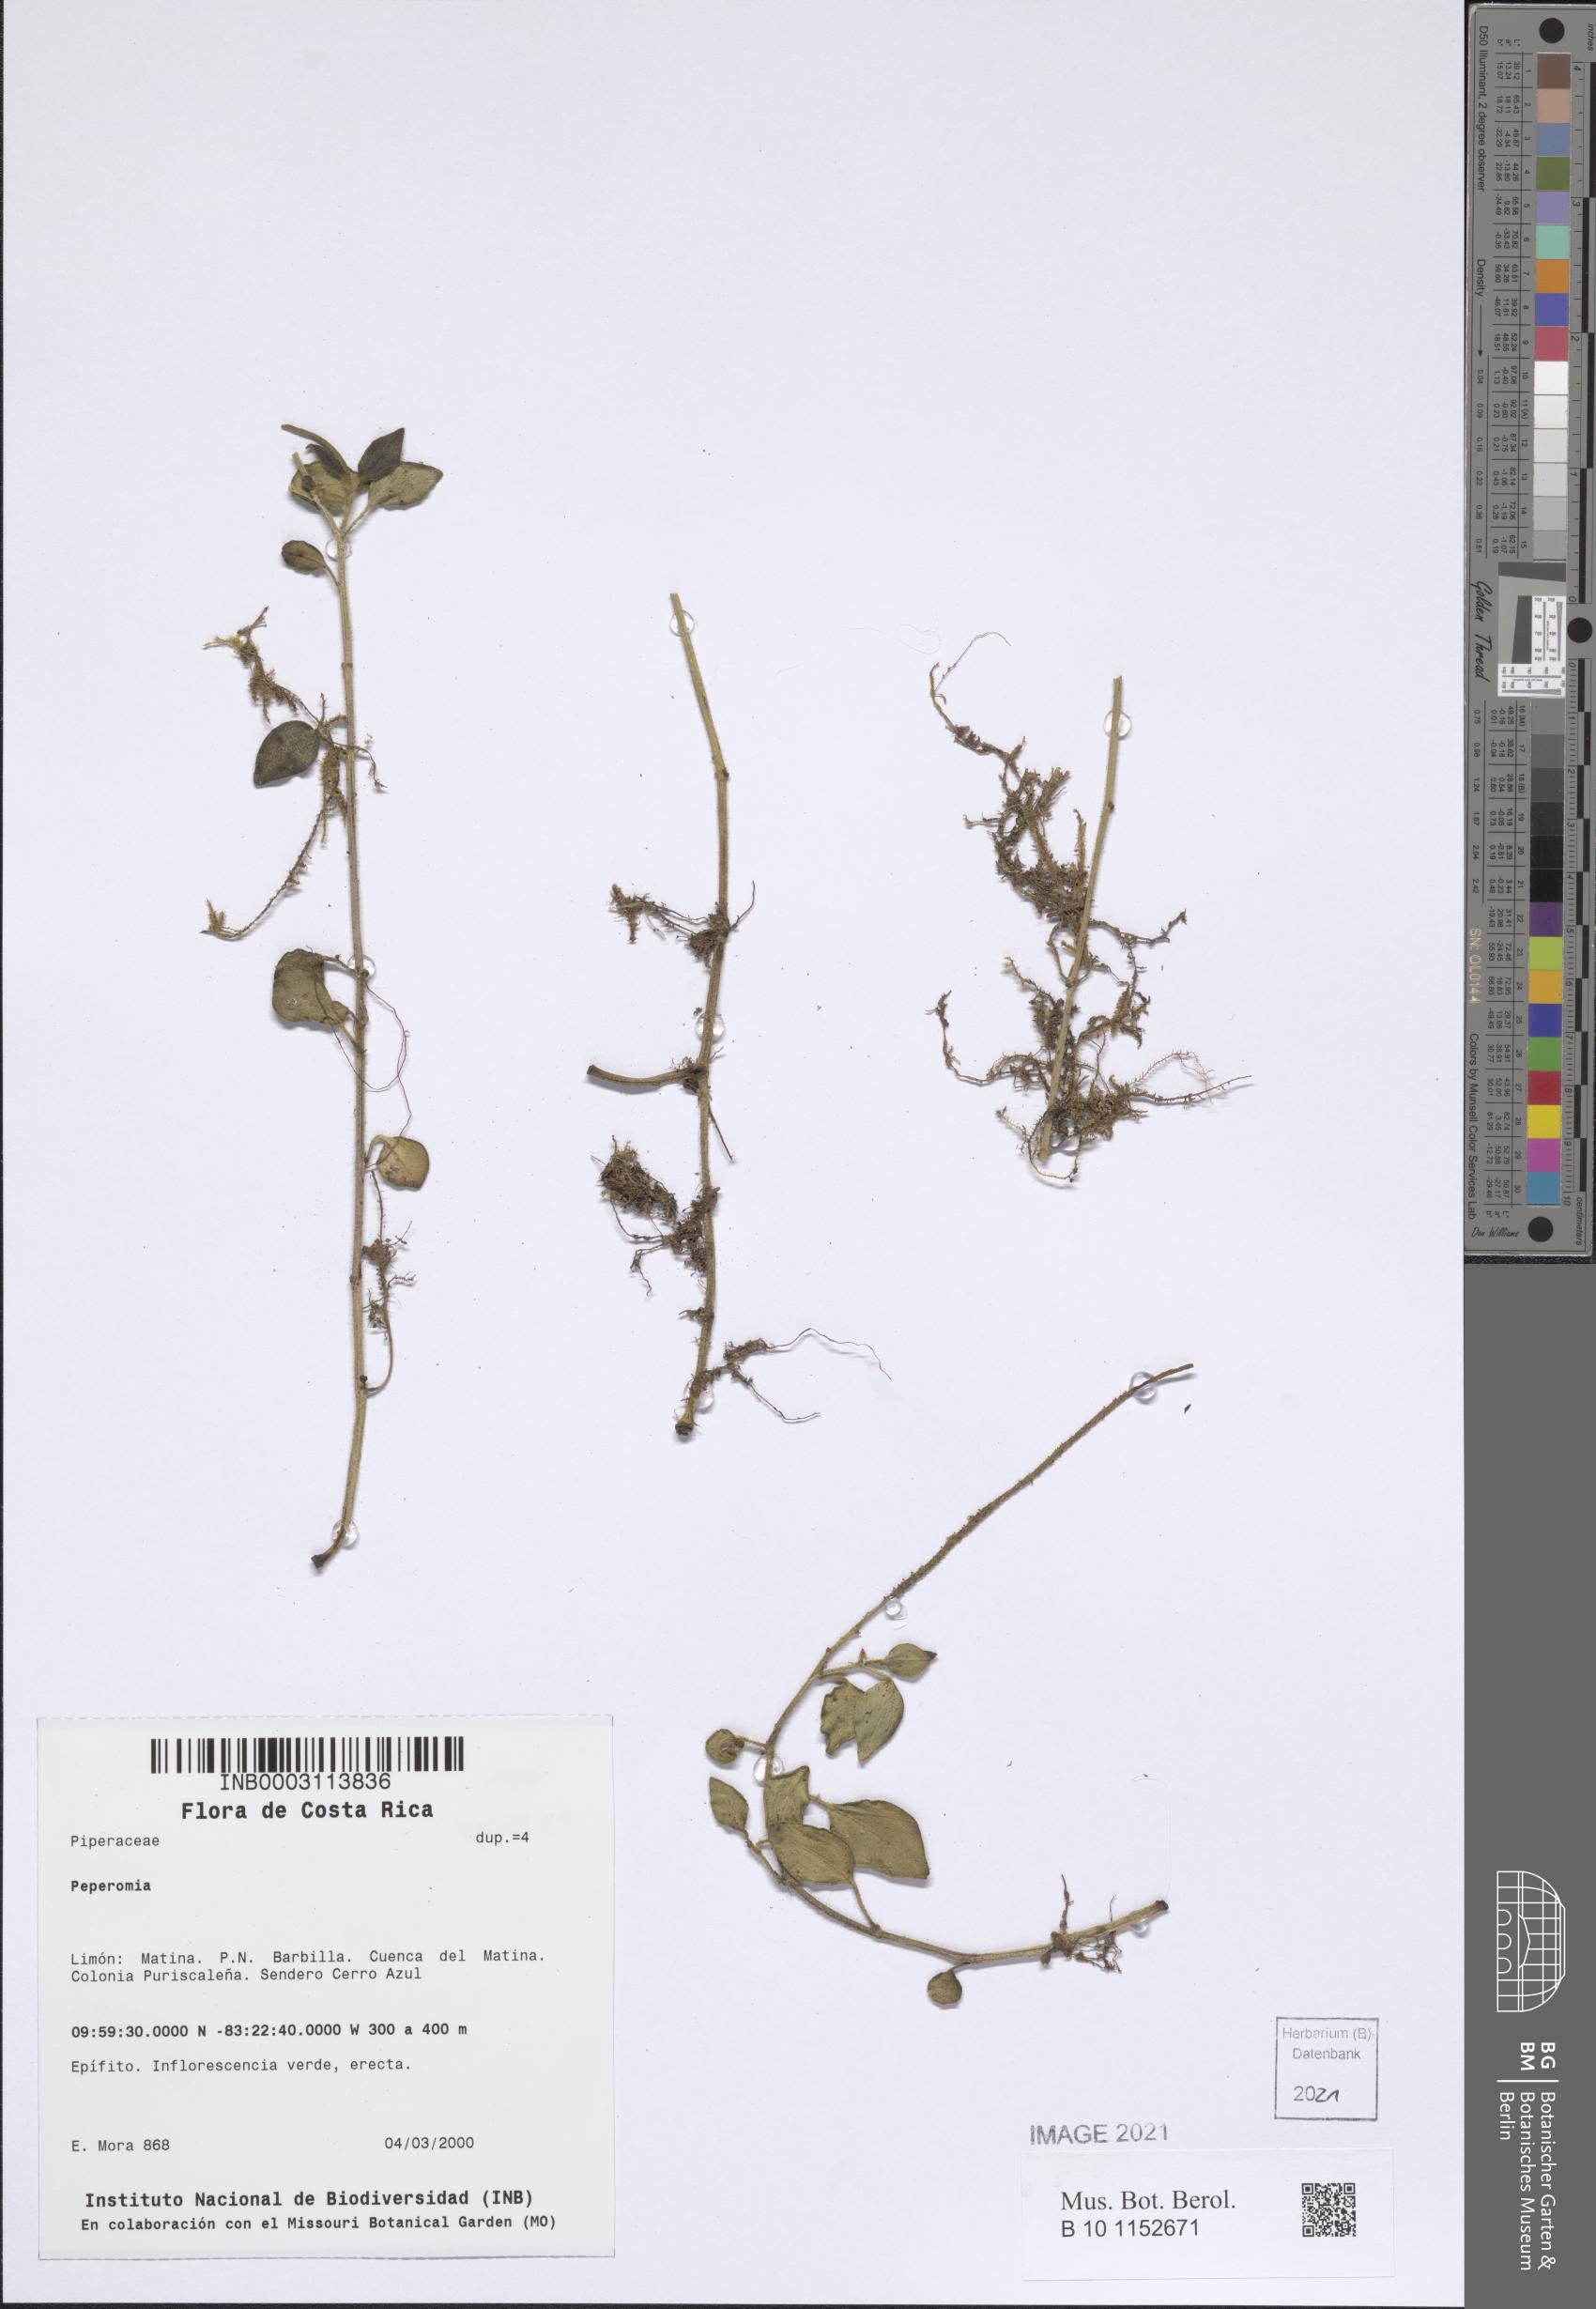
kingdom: Plantae
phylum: Tracheophyta
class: Magnoliopsida
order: Piperales
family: Piperaceae
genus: Peperomia
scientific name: Peperomia
